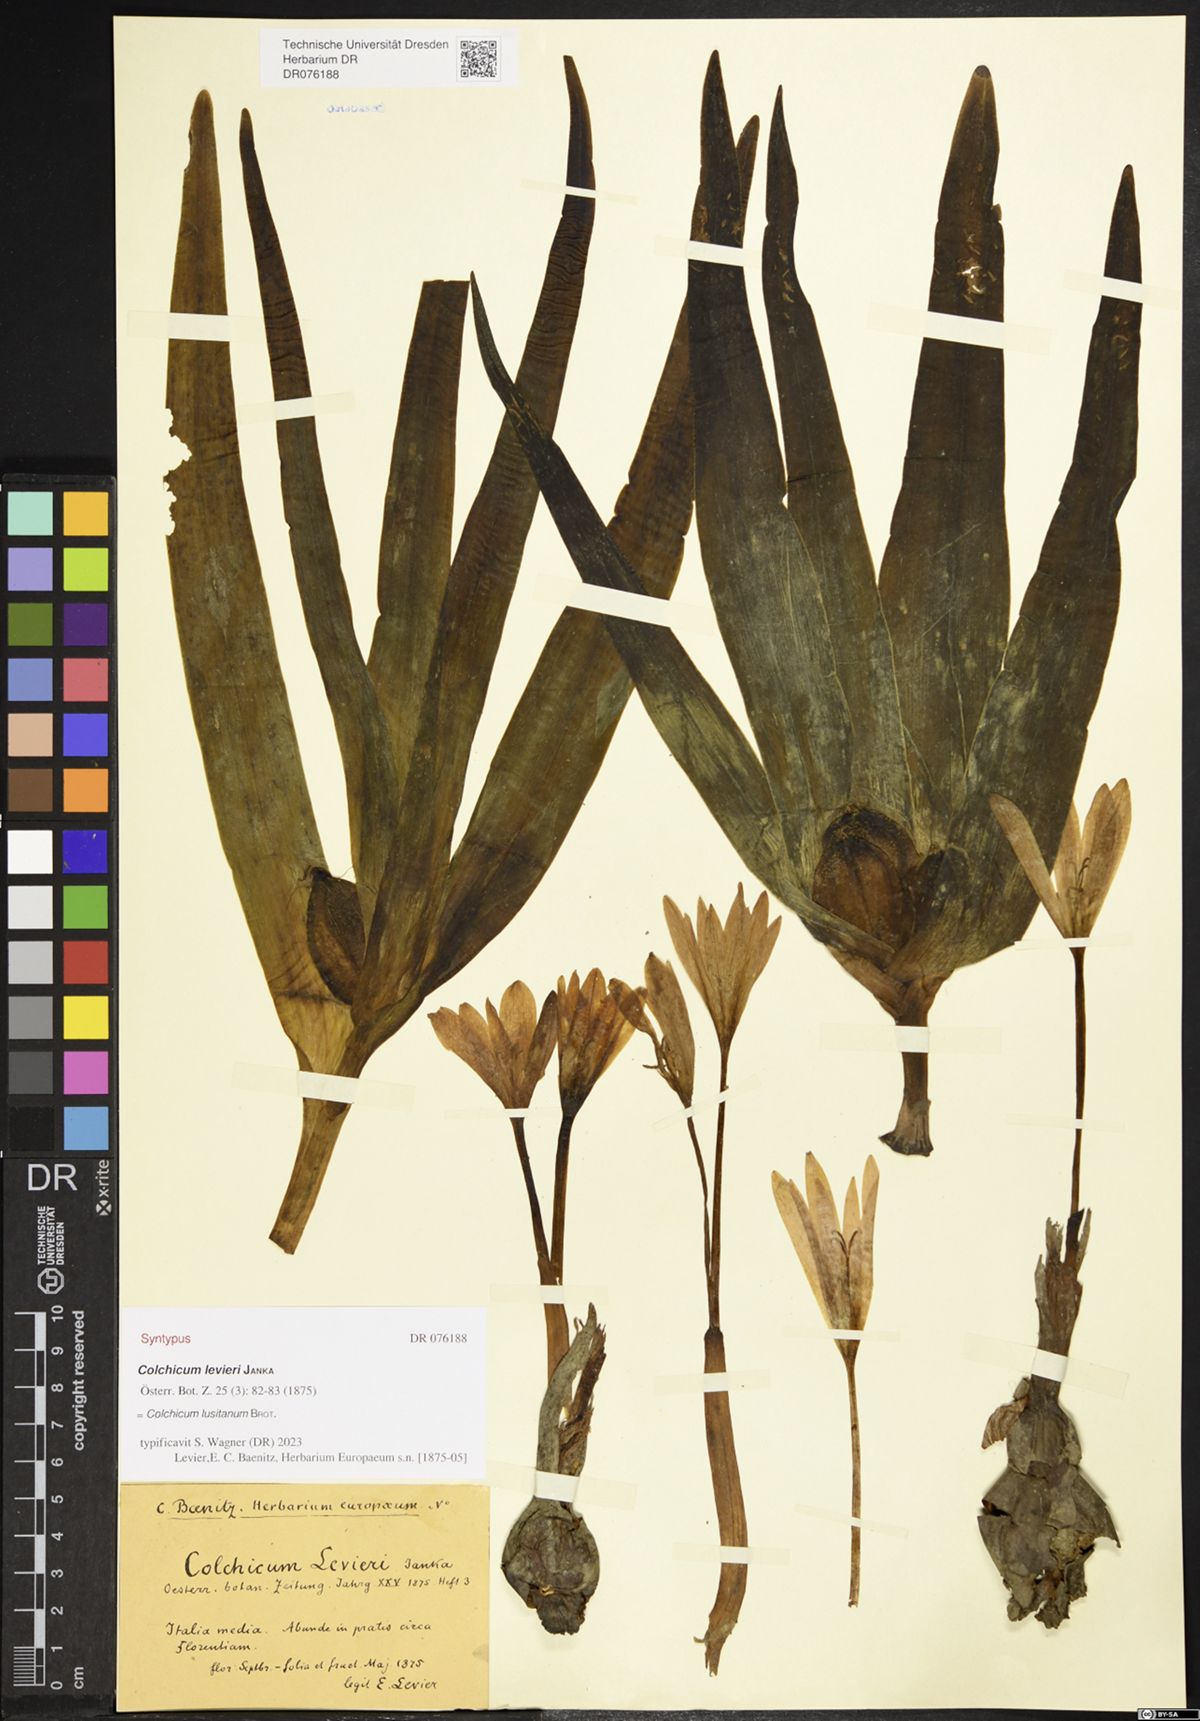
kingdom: Plantae
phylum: Tracheophyta
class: Liliopsida
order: Liliales
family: Colchicaceae
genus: Colchicum
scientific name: Colchicum lusitanum
